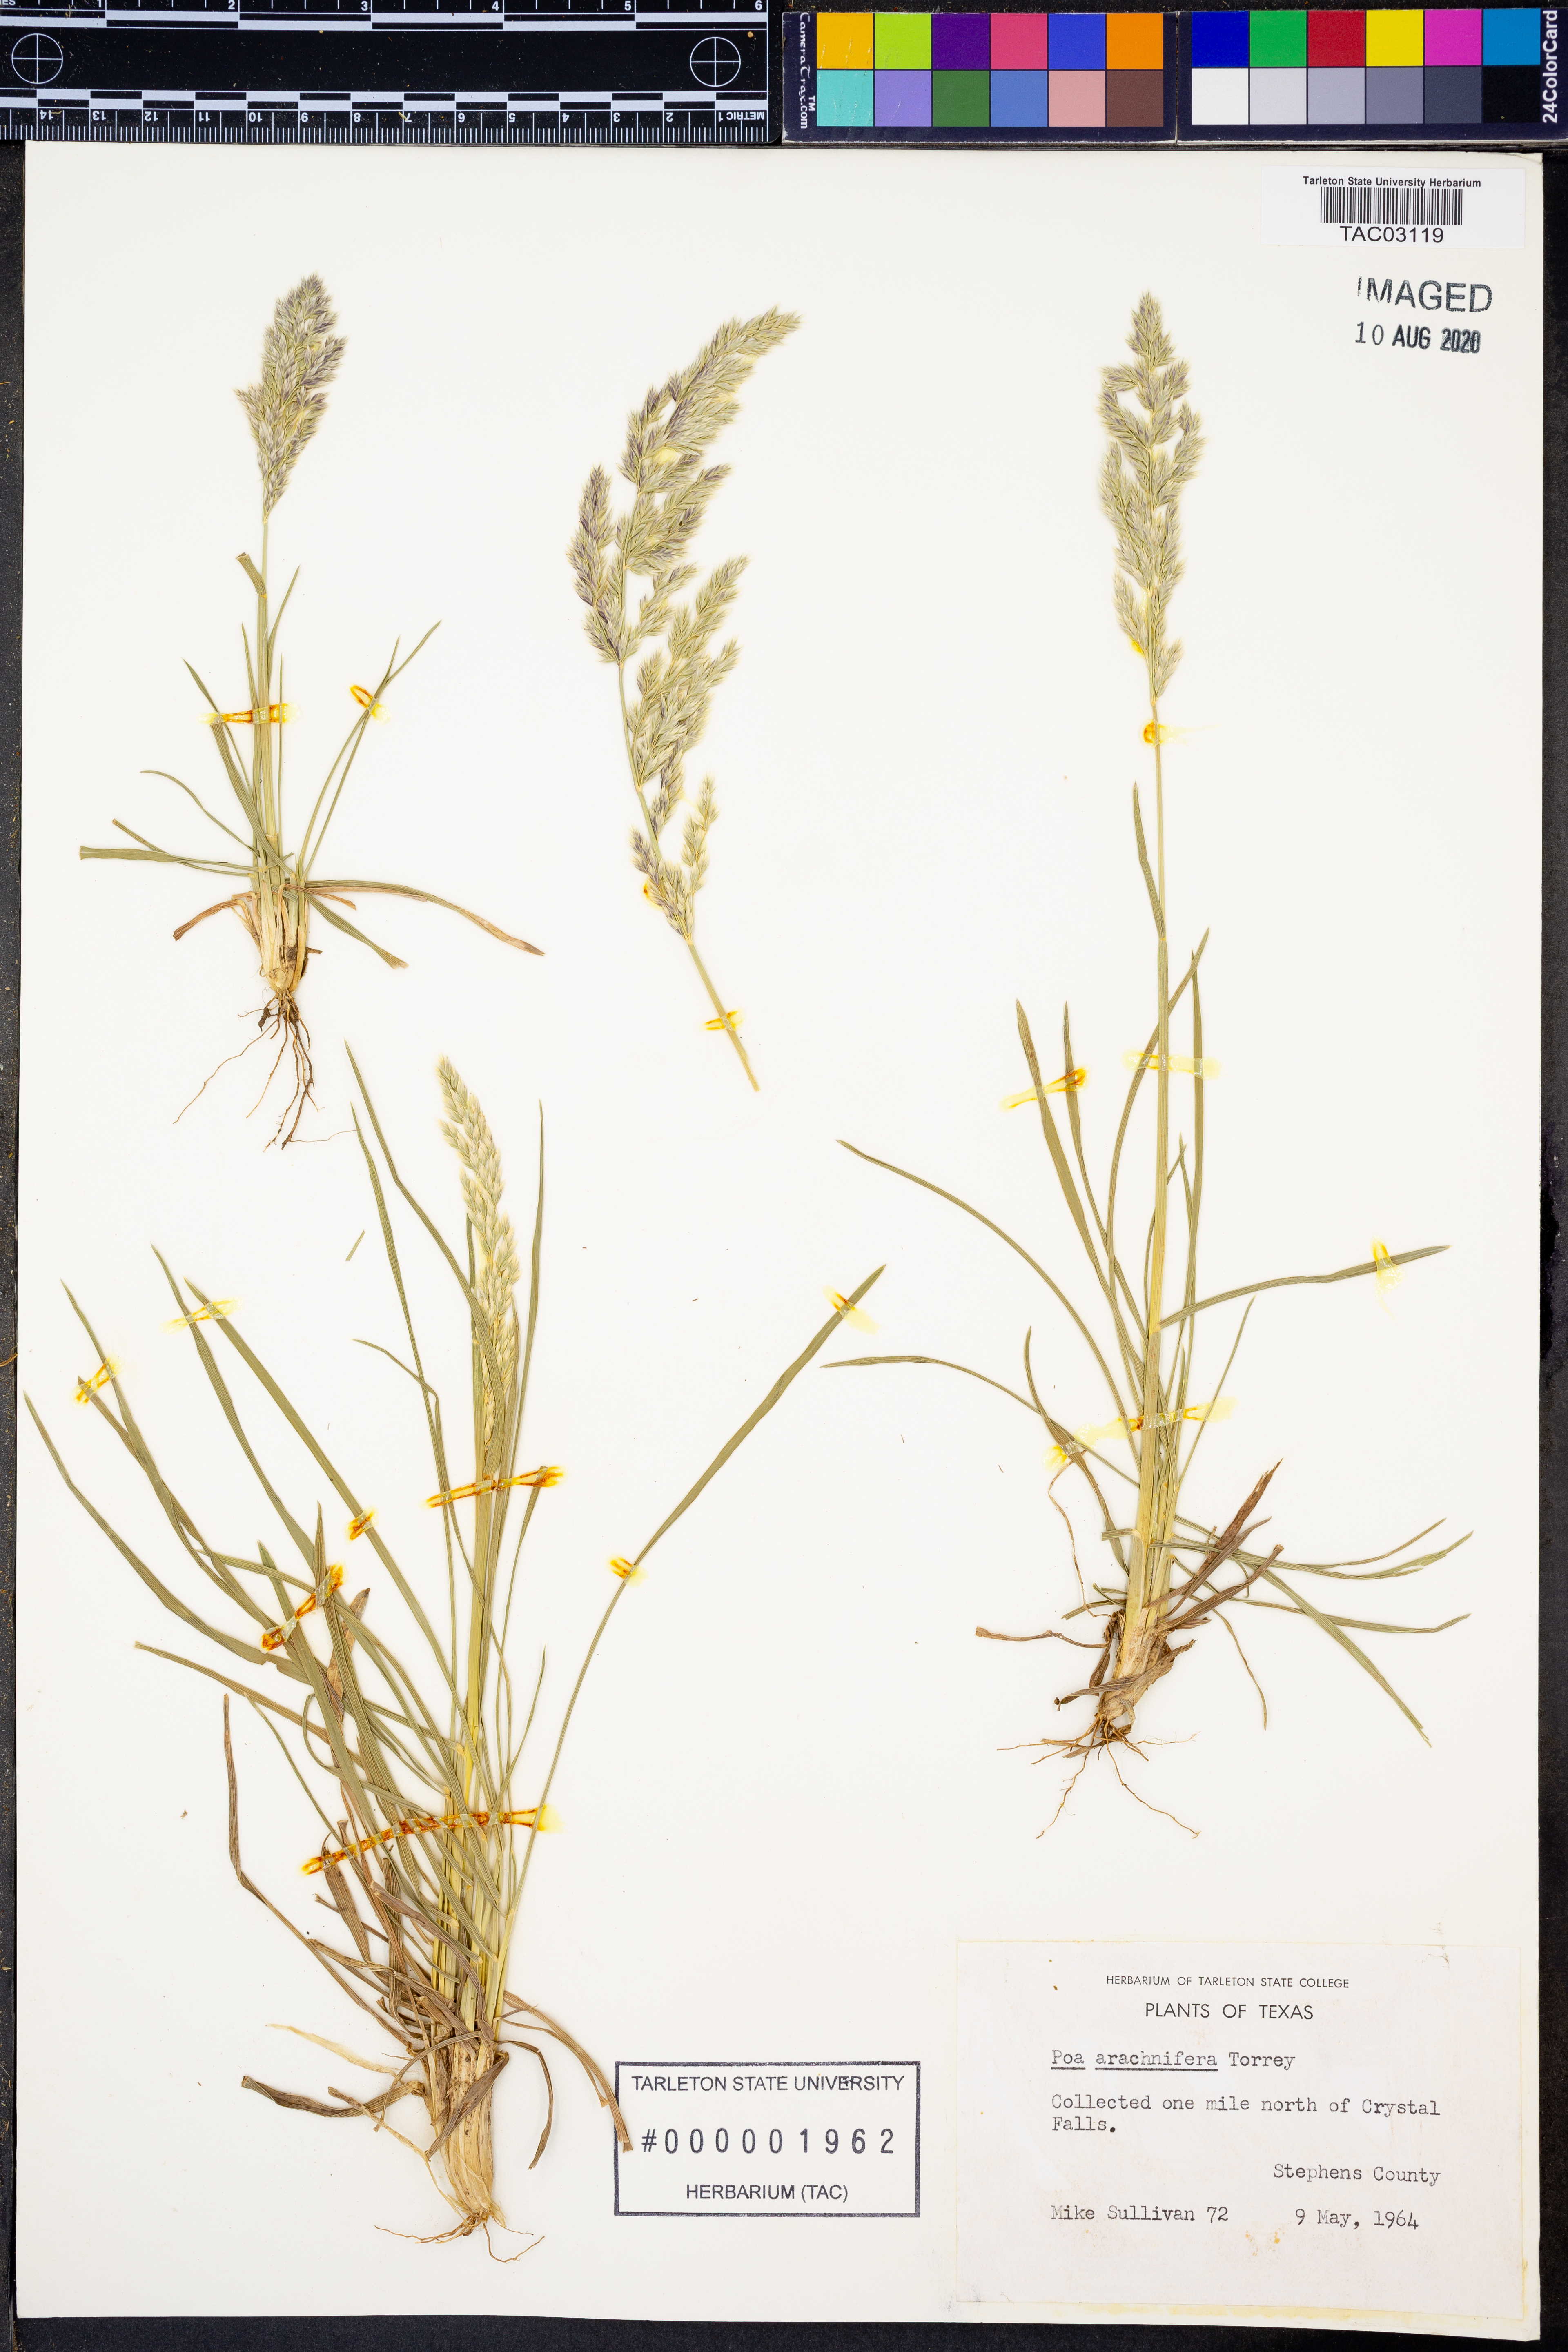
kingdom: Plantae
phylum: Tracheophyta
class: Liliopsida
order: Poales
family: Poaceae
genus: Poa
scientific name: Poa arachnifera
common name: Texas bluegrass
